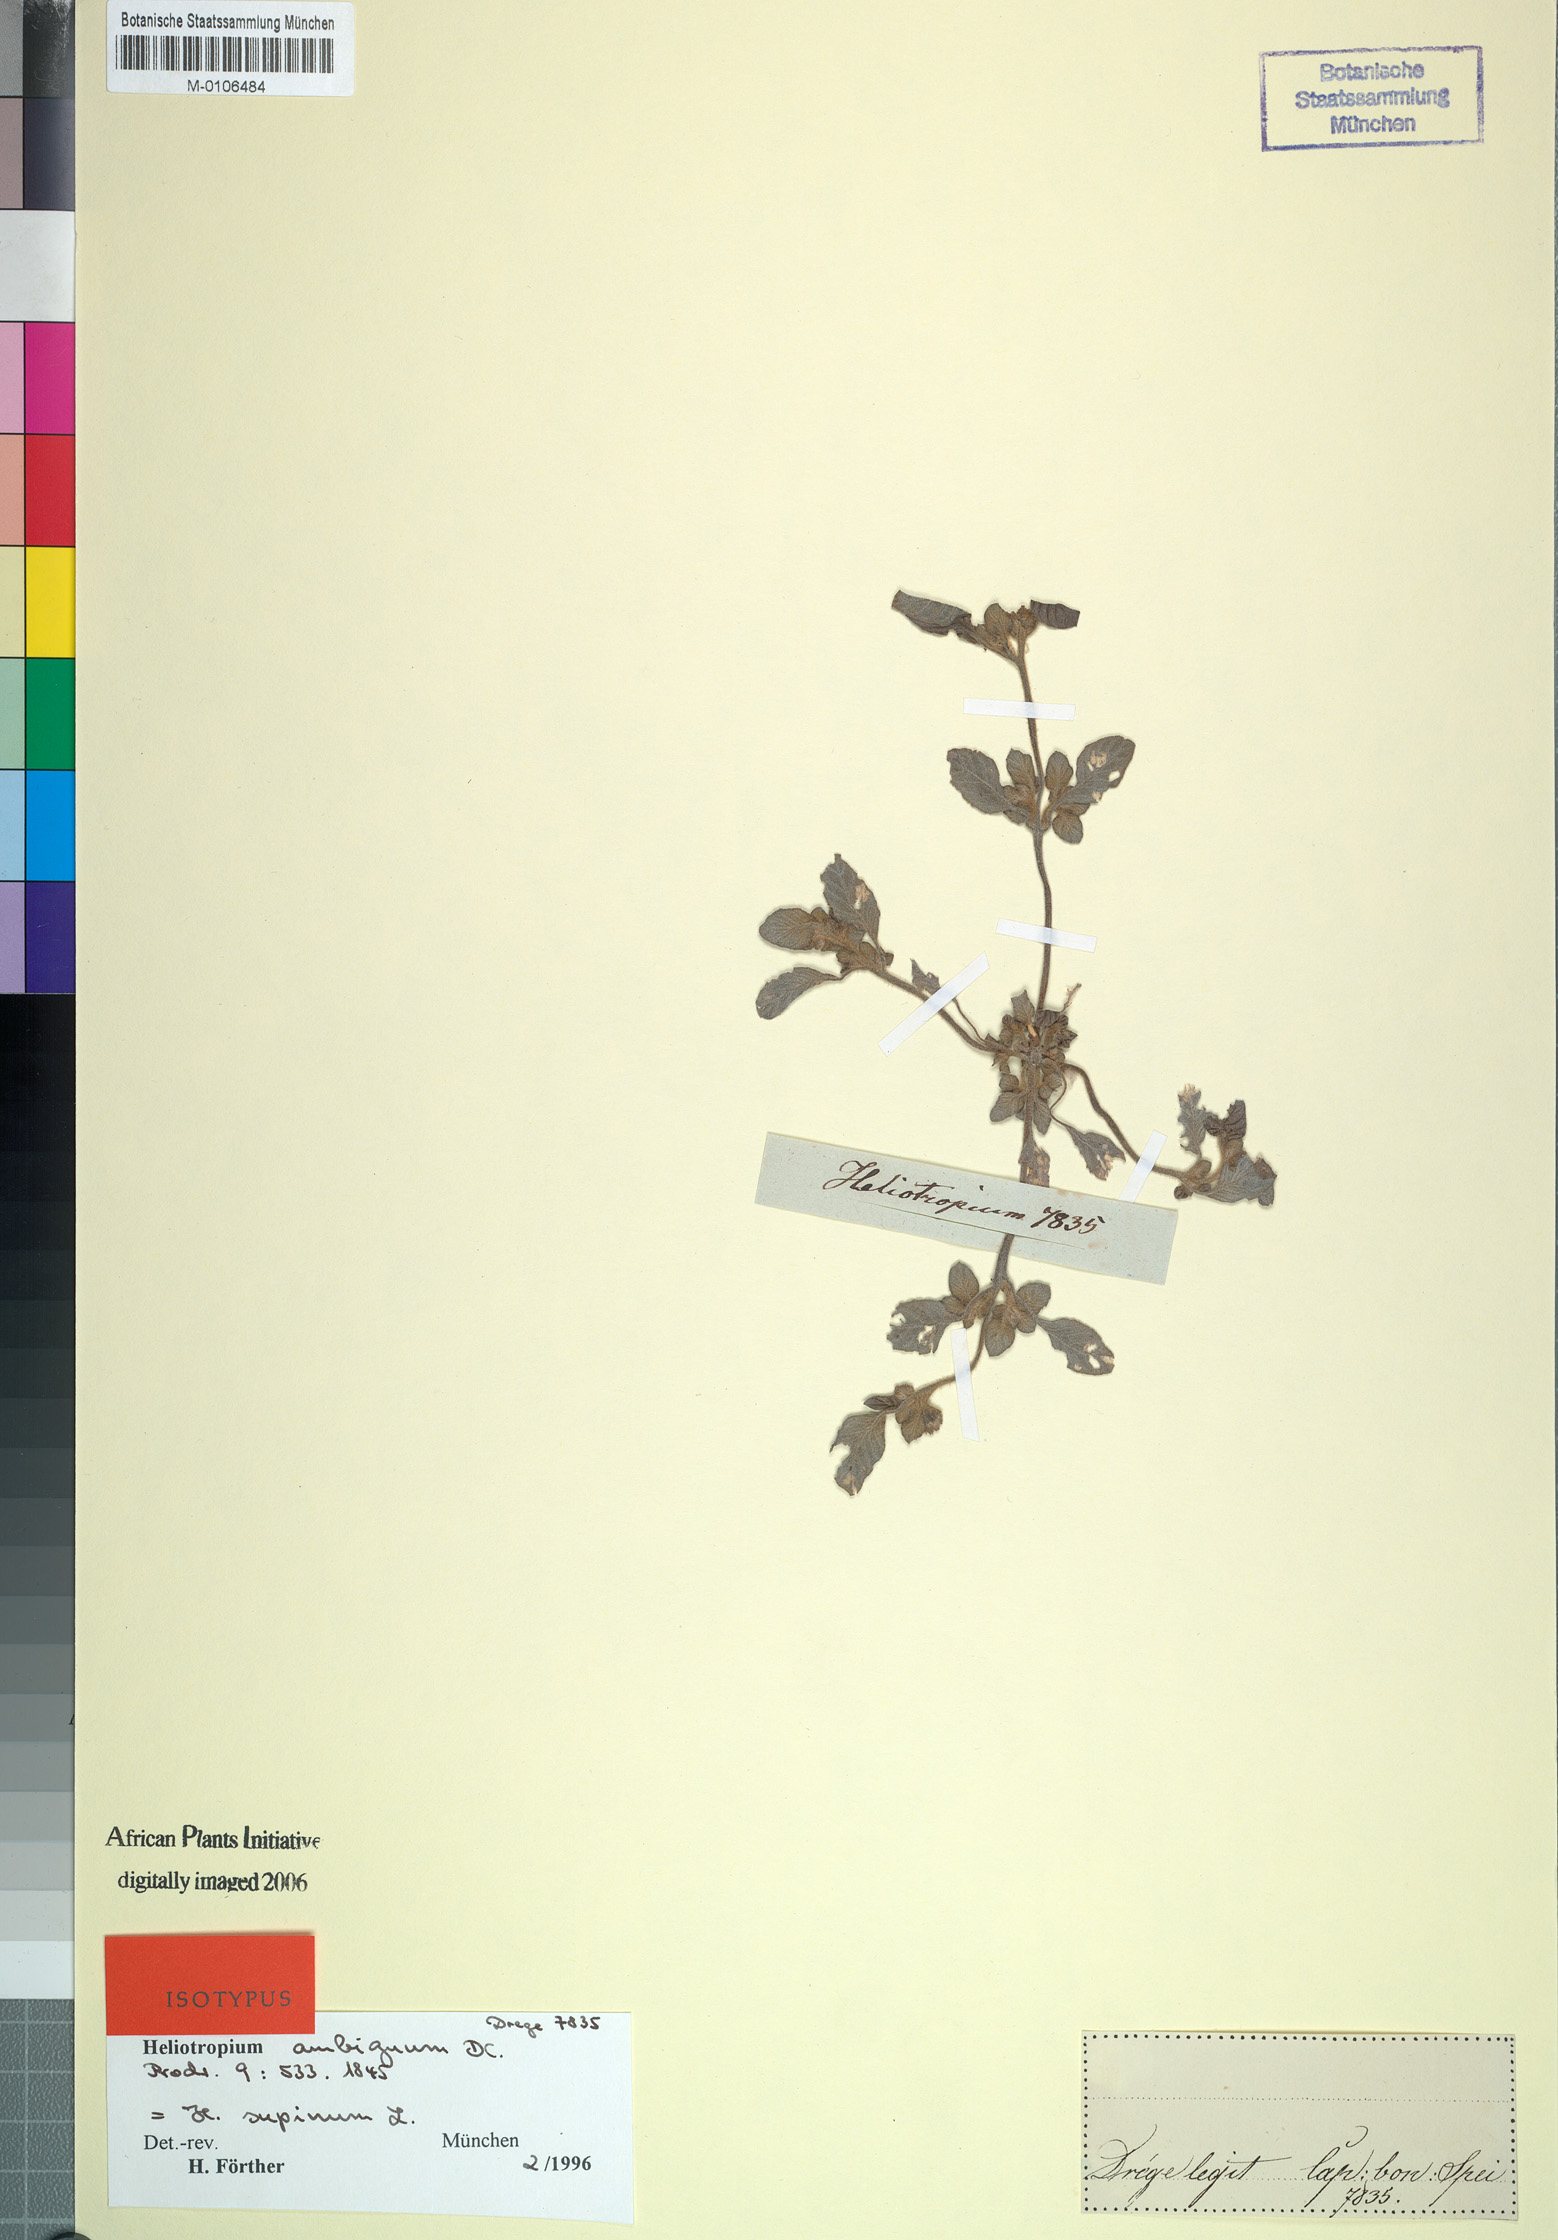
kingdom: Plantae
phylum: Tracheophyta
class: Magnoliopsida
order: Boraginales
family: Heliotropiaceae
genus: Heliotropium
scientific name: Heliotropium supinum
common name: Dwarf heliotrope
